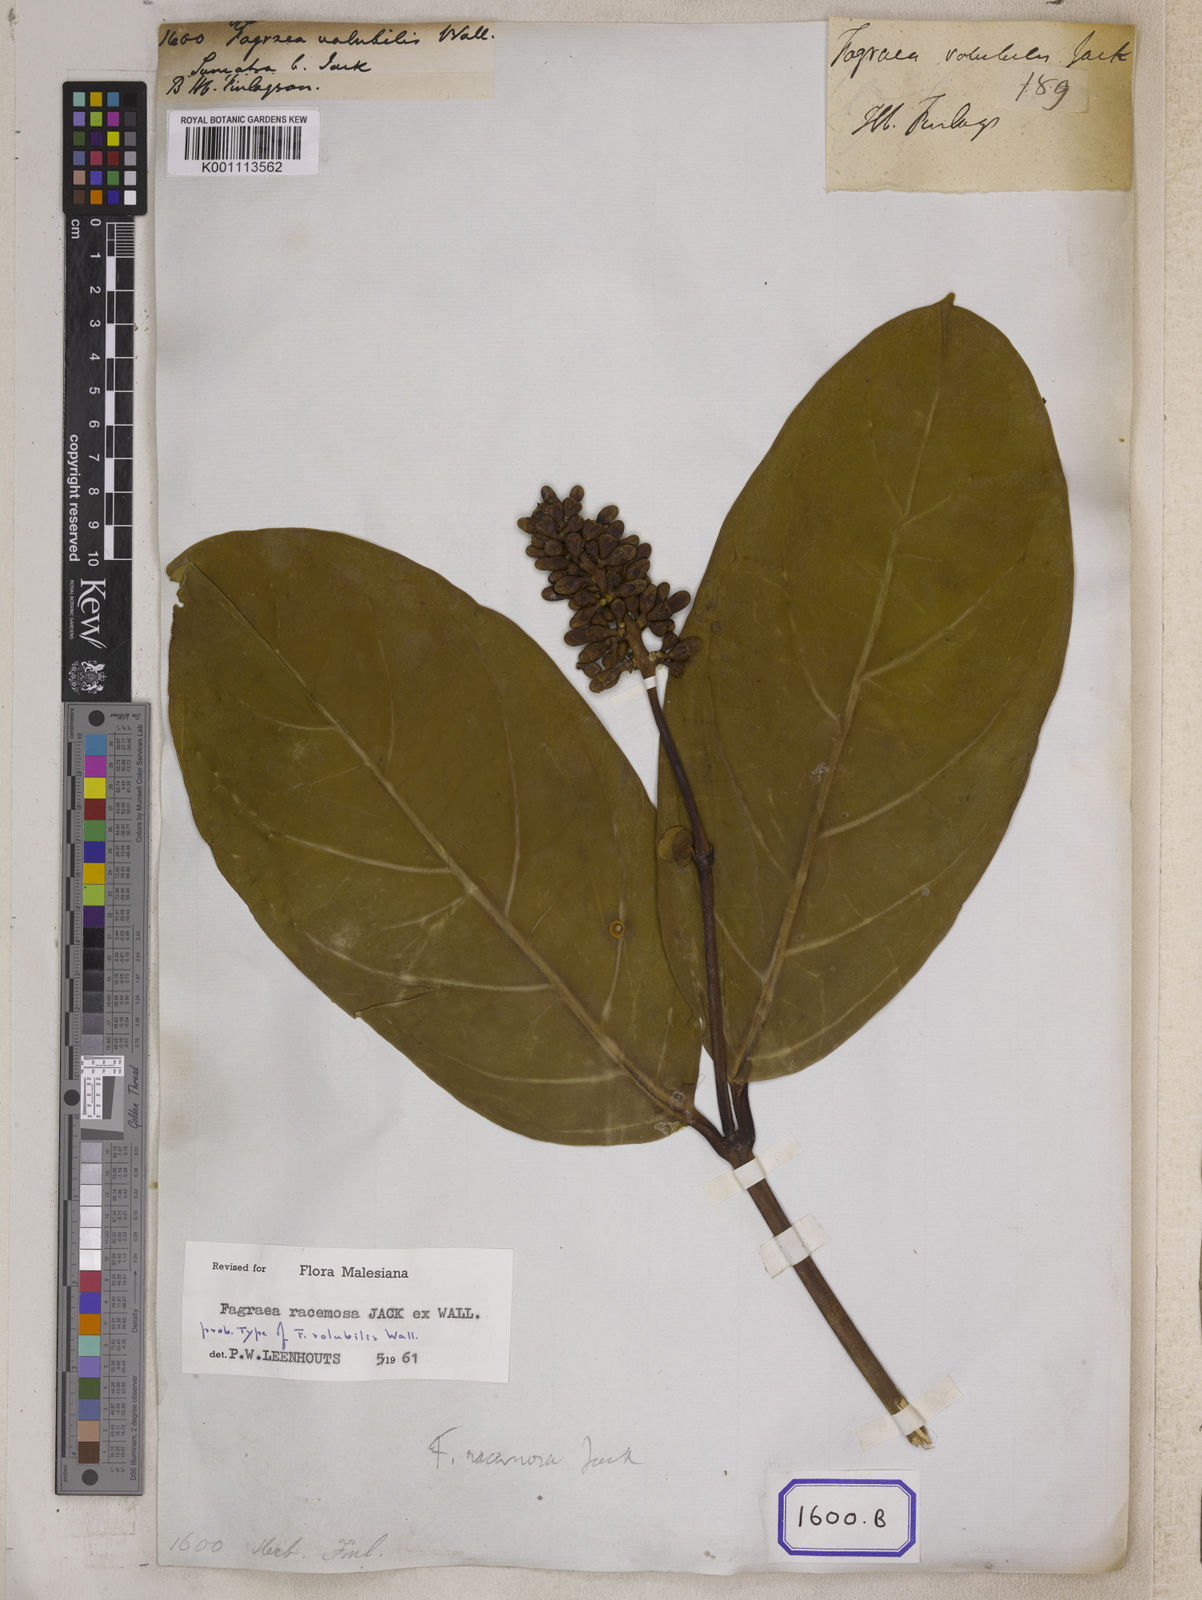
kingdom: Plantae
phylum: Tracheophyta
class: Magnoliopsida
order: Gentianales
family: Gentianaceae
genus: Utania
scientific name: Utania volubilis
